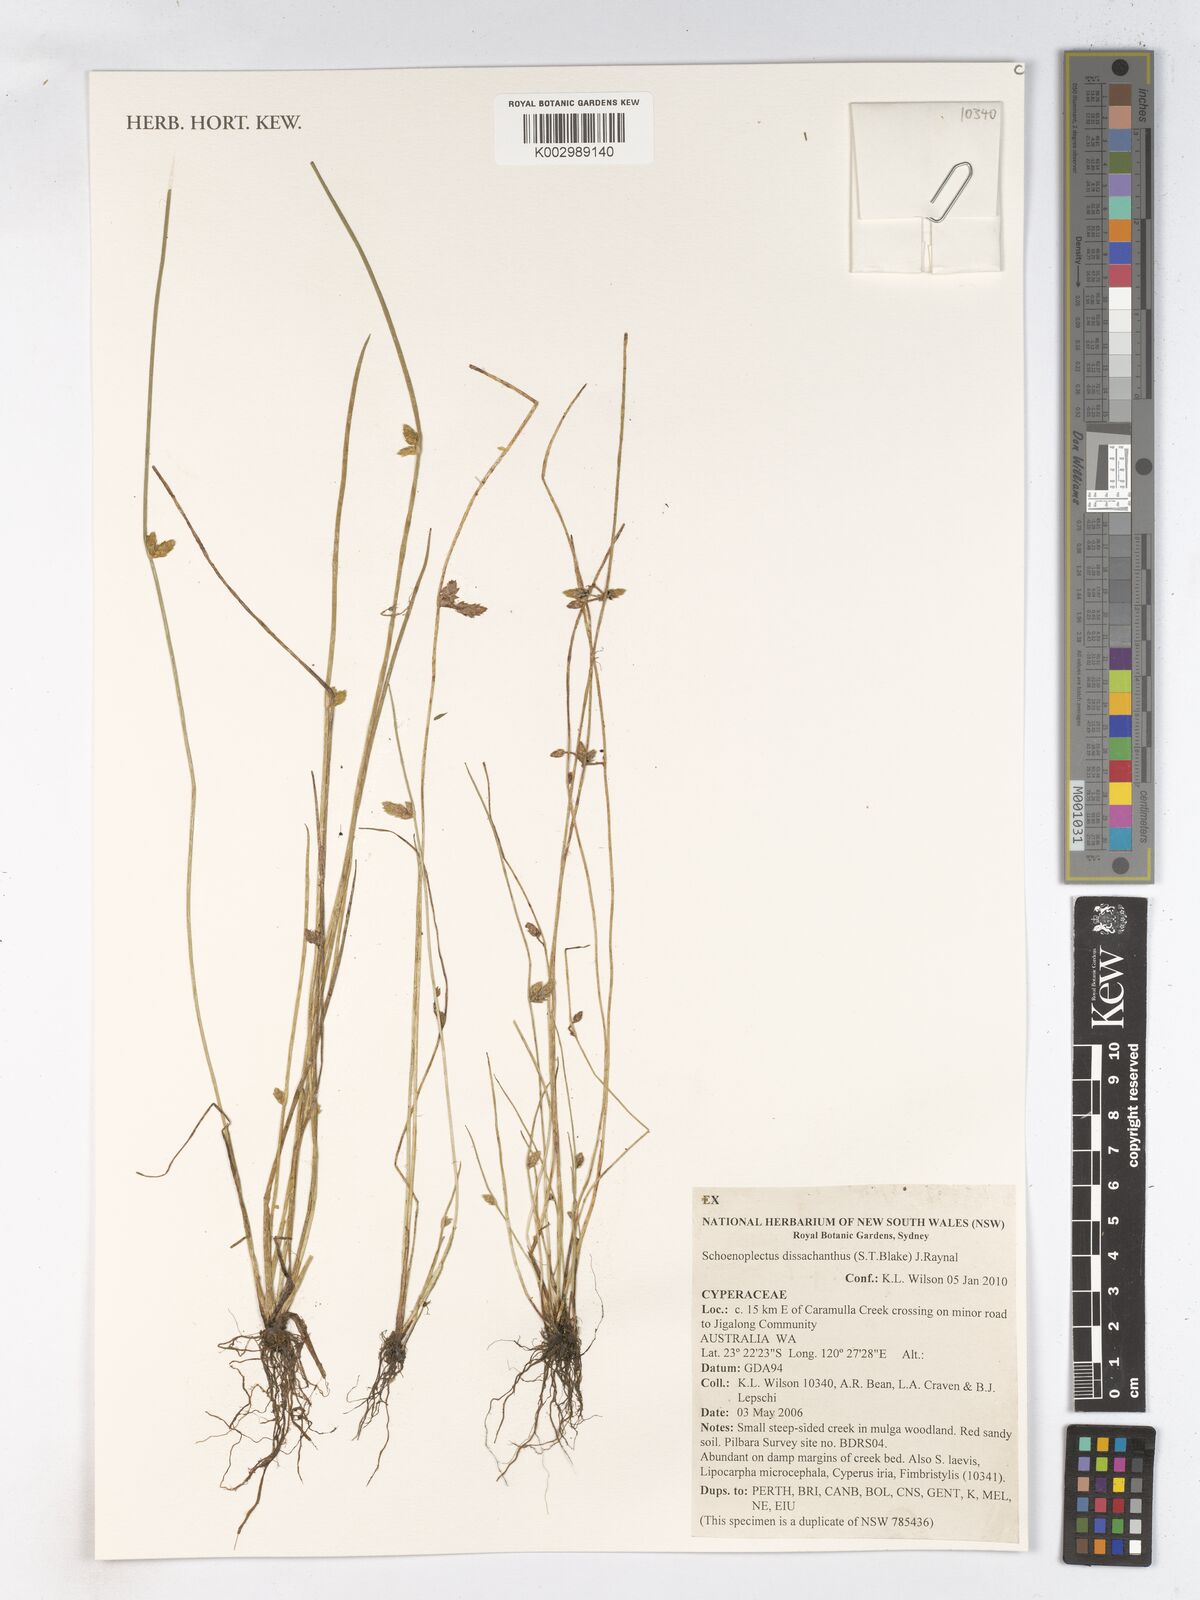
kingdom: Plantae
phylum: Tracheophyta
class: Liliopsida
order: Poales
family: Cyperaceae
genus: Schoenoplectiella
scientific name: Schoenoplectiella dissachantha
